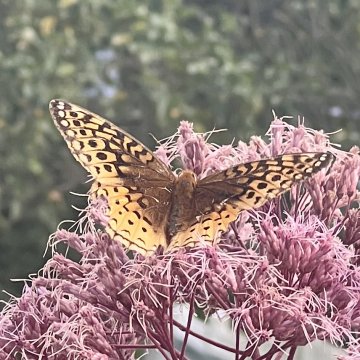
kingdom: Animalia
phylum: Arthropoda
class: Insecta
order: Lepidoptera
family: Nymphalidae
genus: Speyeria
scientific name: Speyeria cybele
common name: Great Spangled Fritillary
